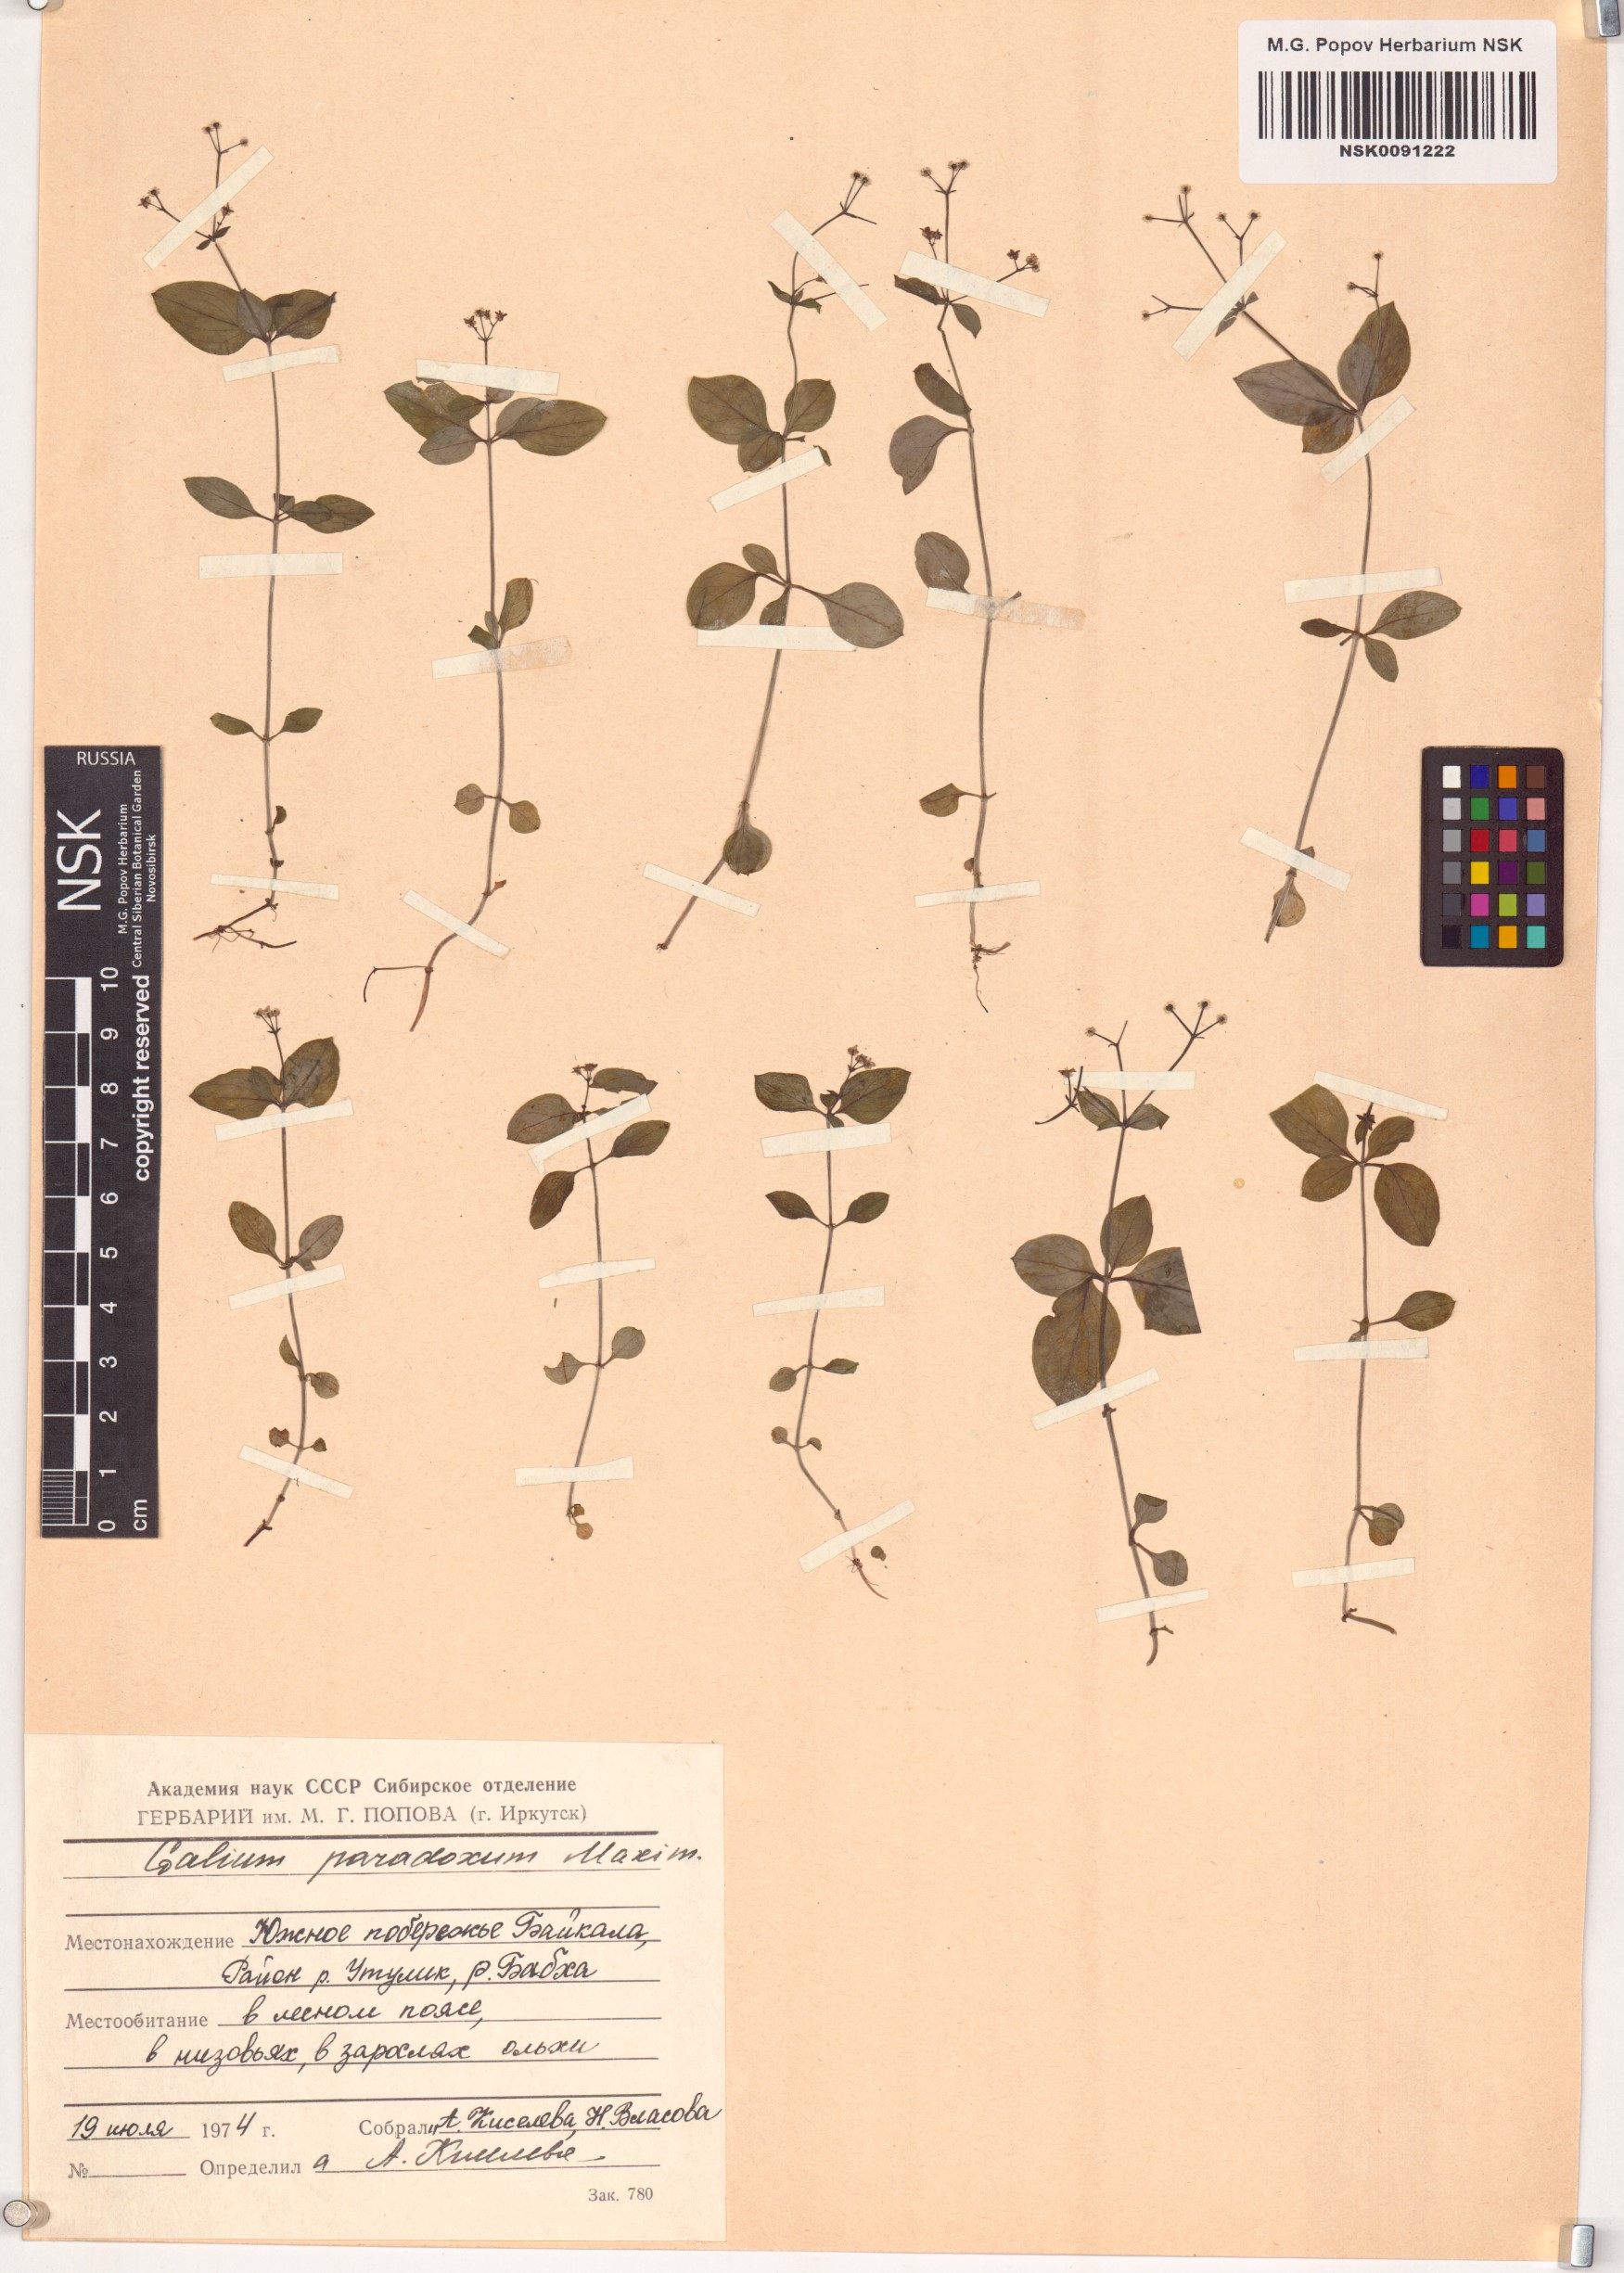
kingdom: Plantae
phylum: Tracheophyta
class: Magnoliopsida
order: Gentianales
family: Rubiaceae
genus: Pseudogalium
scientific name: Pseudogalium paradoxum
